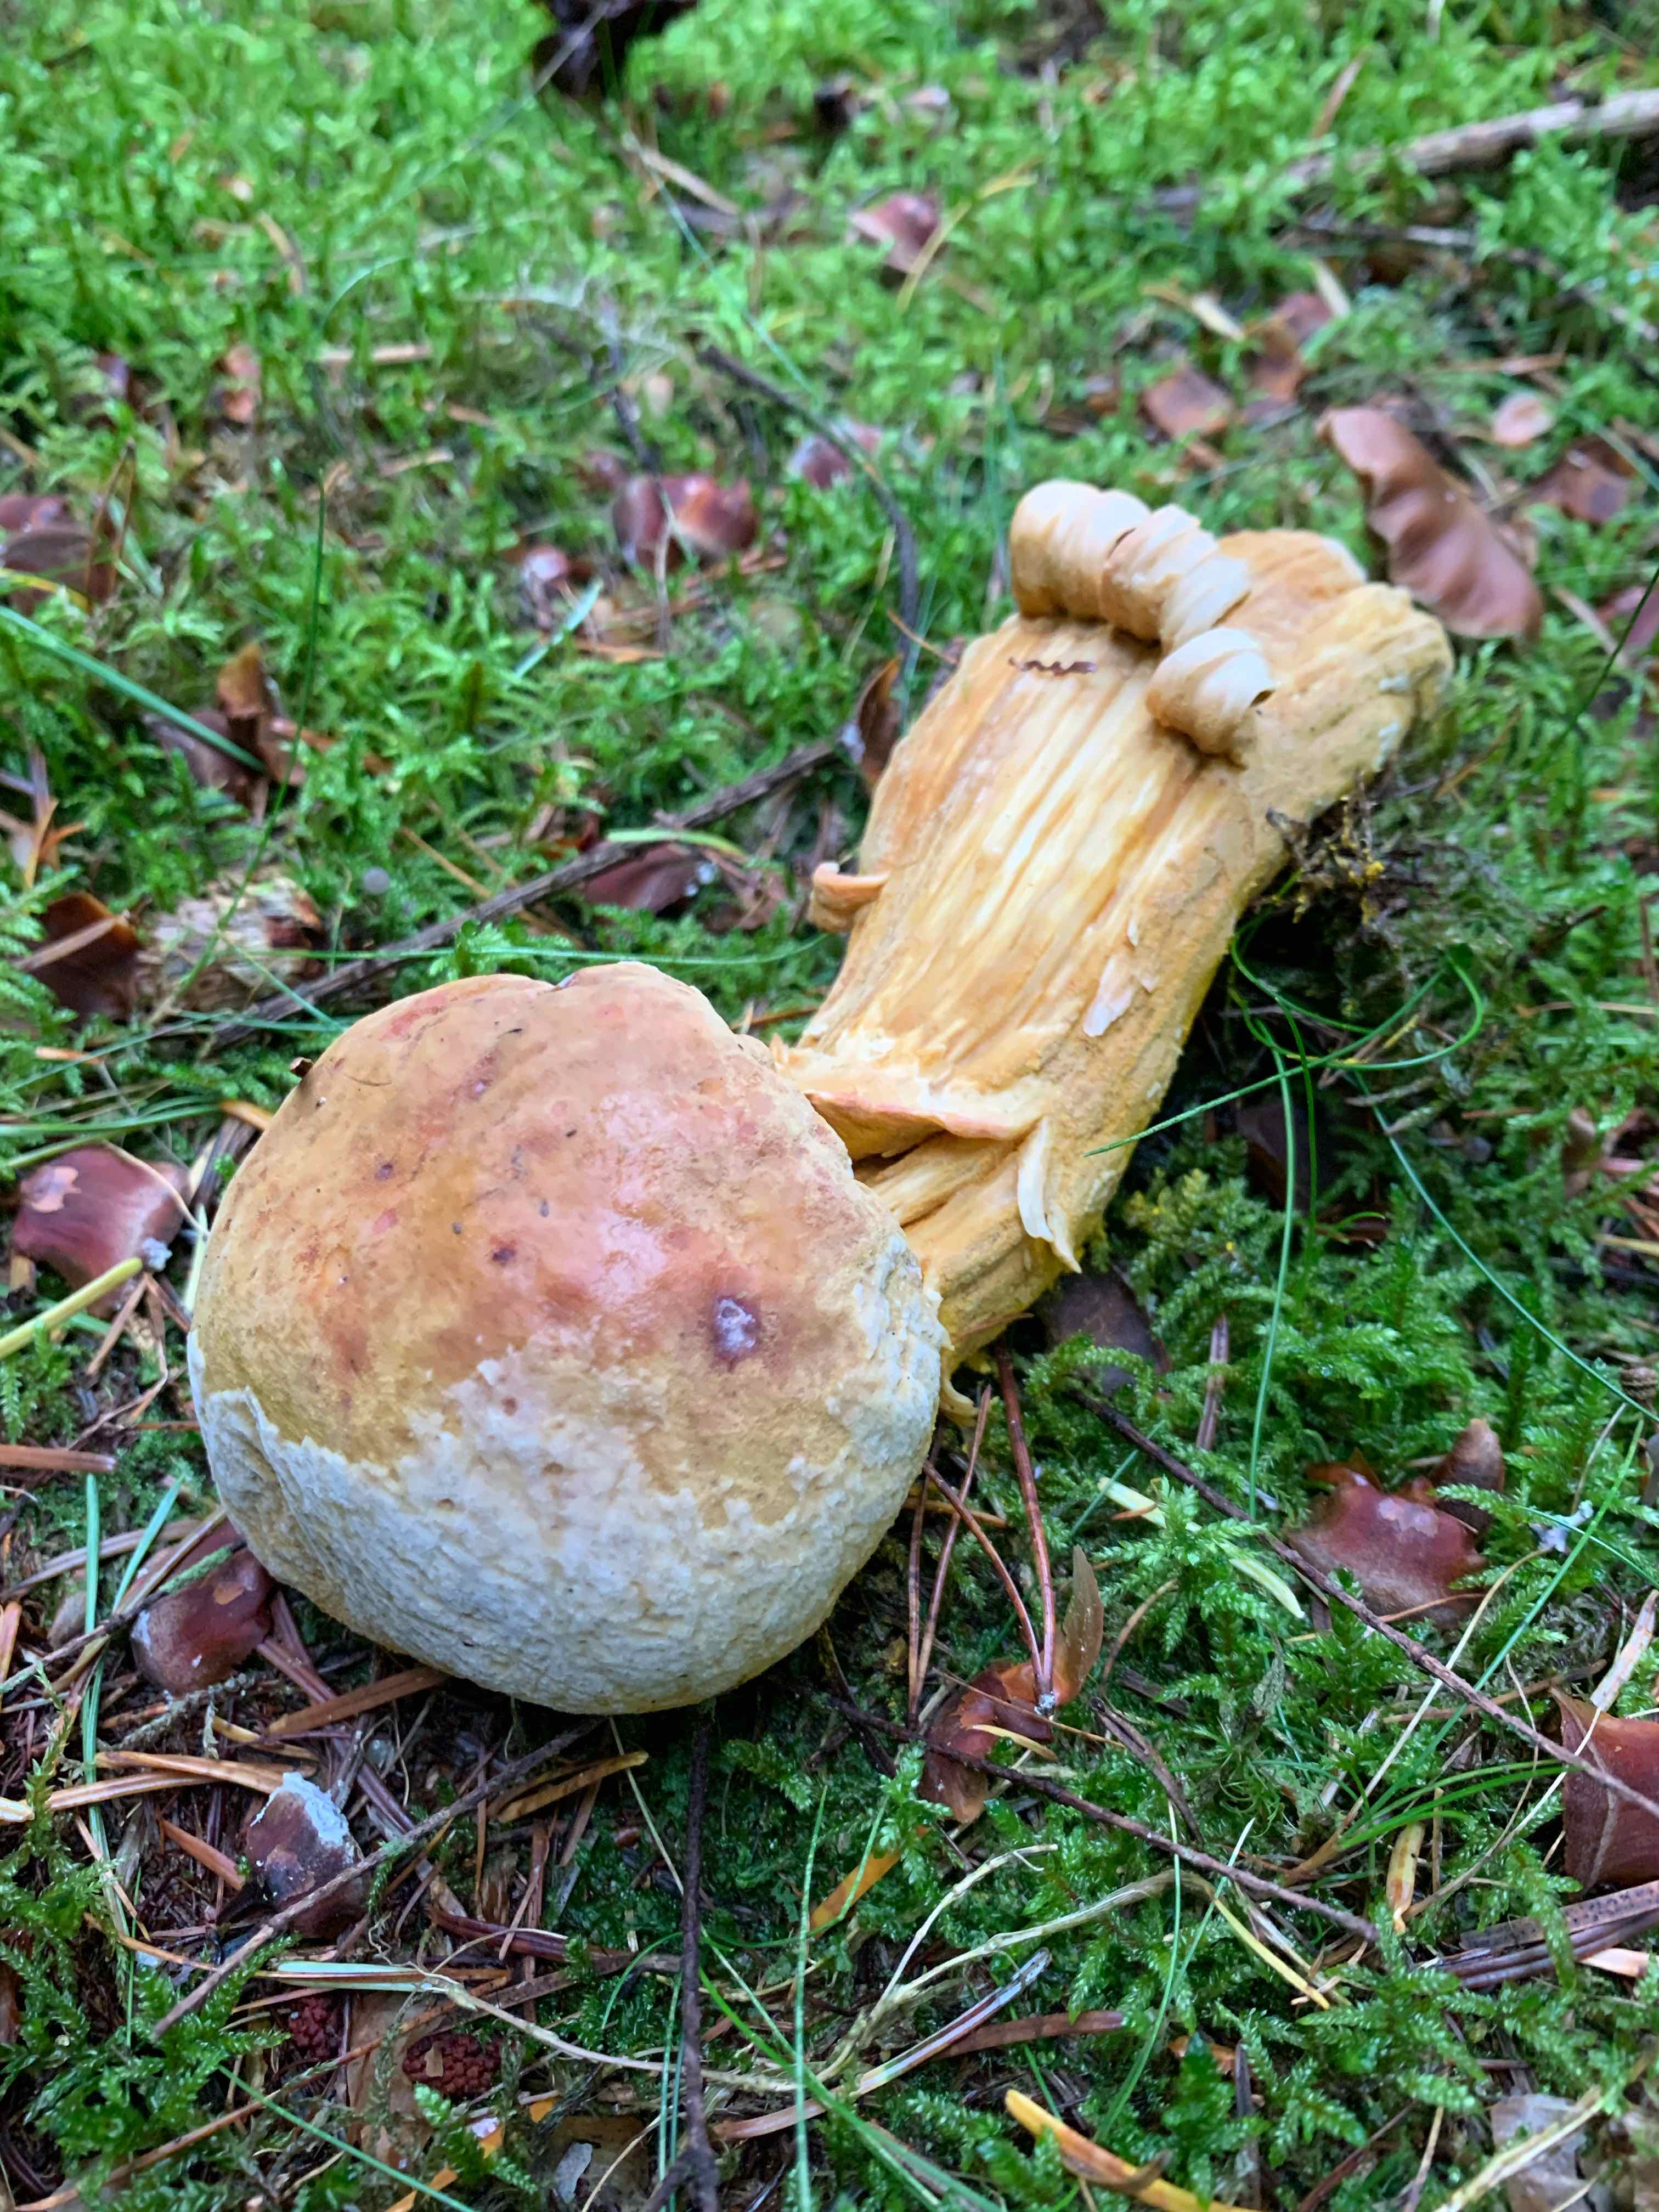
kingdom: Fungi
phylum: Ascomycota
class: Sordariomycetes
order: Hypocreales
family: Hypocreaceae
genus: Hypomyces
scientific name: Hypomyces chrysospermus
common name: gulskimmel-snylteskorpe
